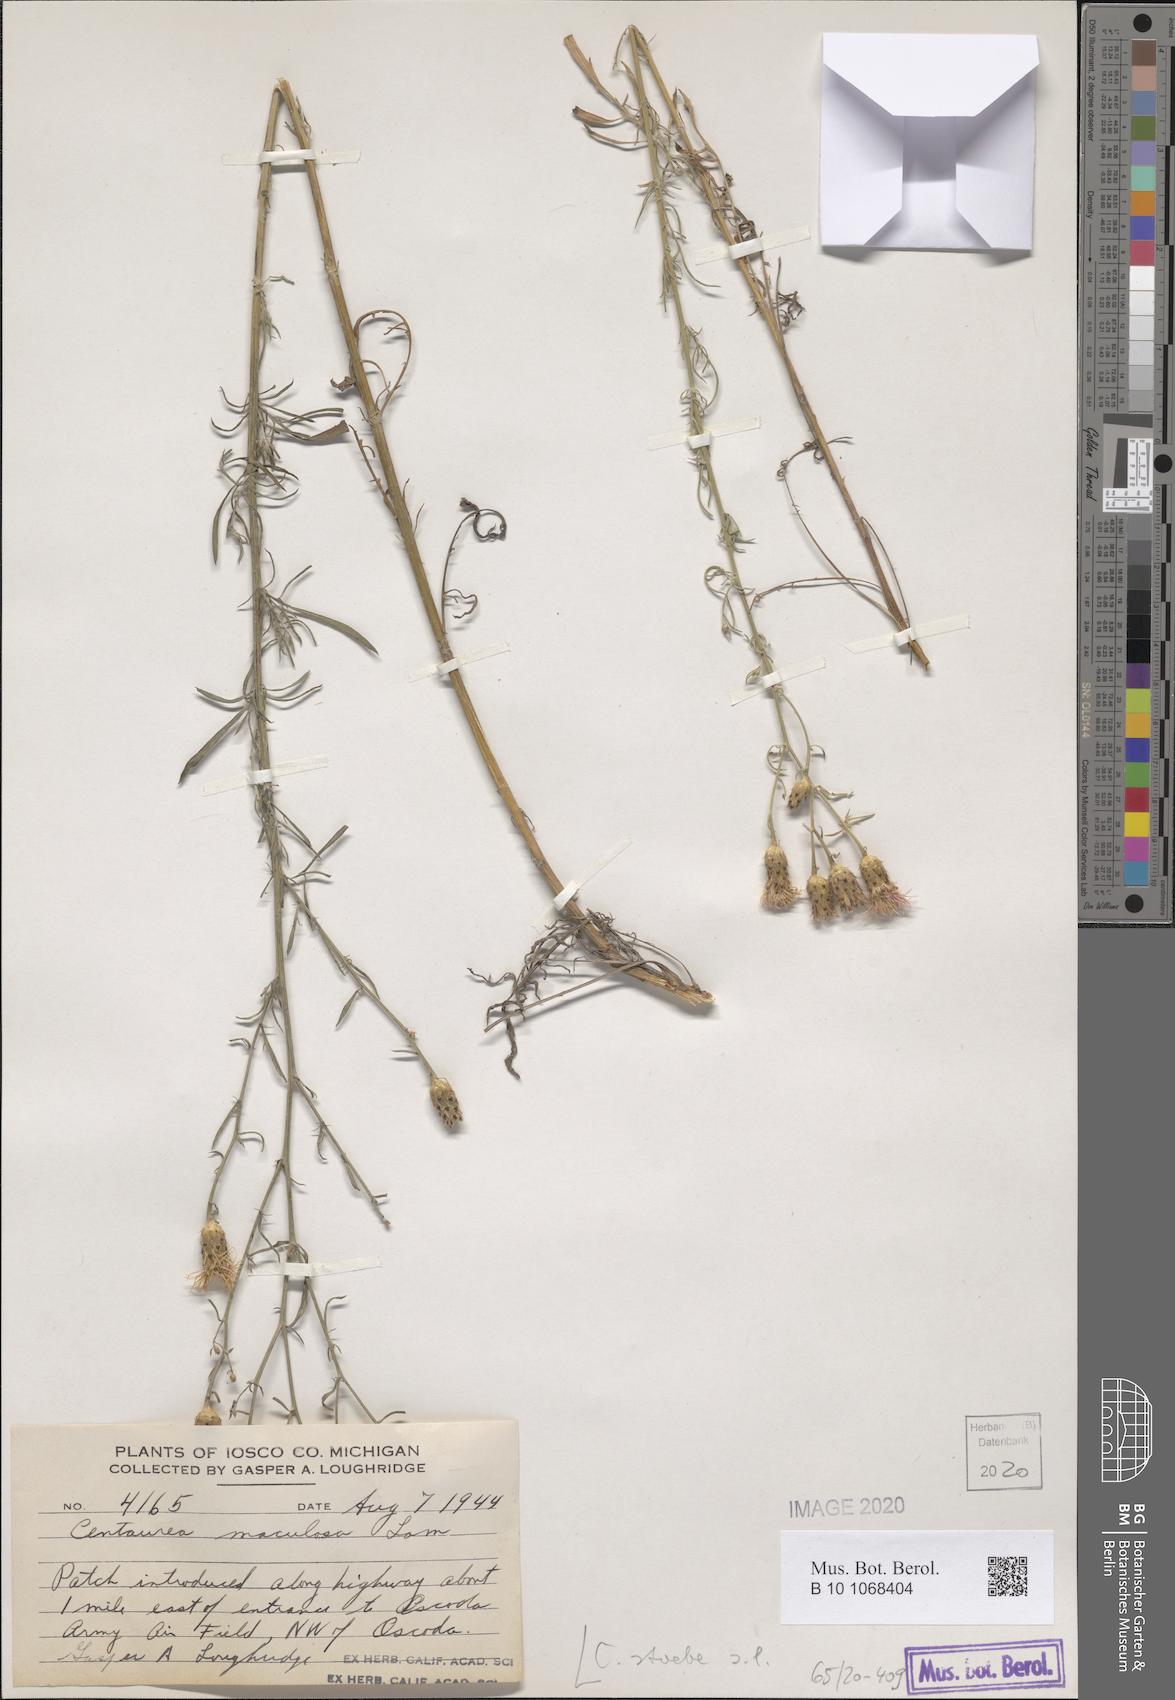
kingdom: Plantae
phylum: Tracheophyta
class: Magnoliopsida
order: Asterales
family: Asteraceae
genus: Centaurea
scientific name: Centaurea stoebe
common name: Spotted knapweed
